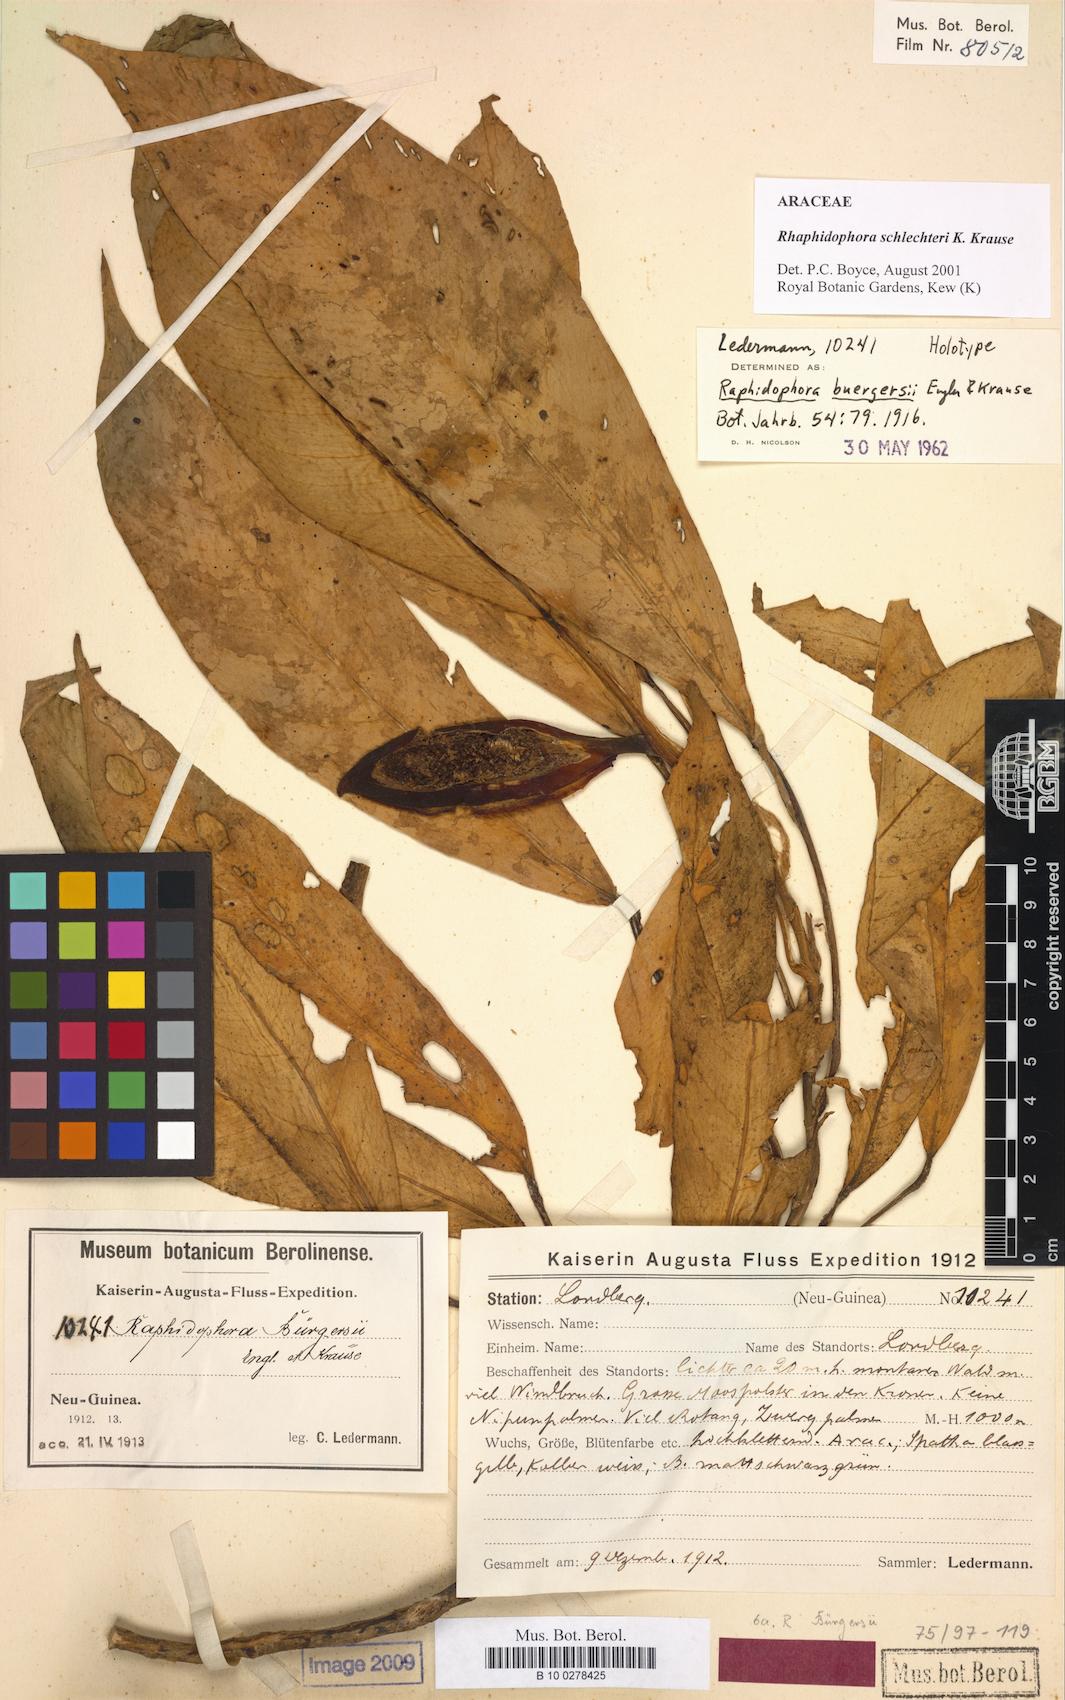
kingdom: Plantae
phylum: Tracheophyta
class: Liliopsida
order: Alismatales
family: Araceae
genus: Rhaphidophora
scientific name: Rhaphidophora schlechteri
